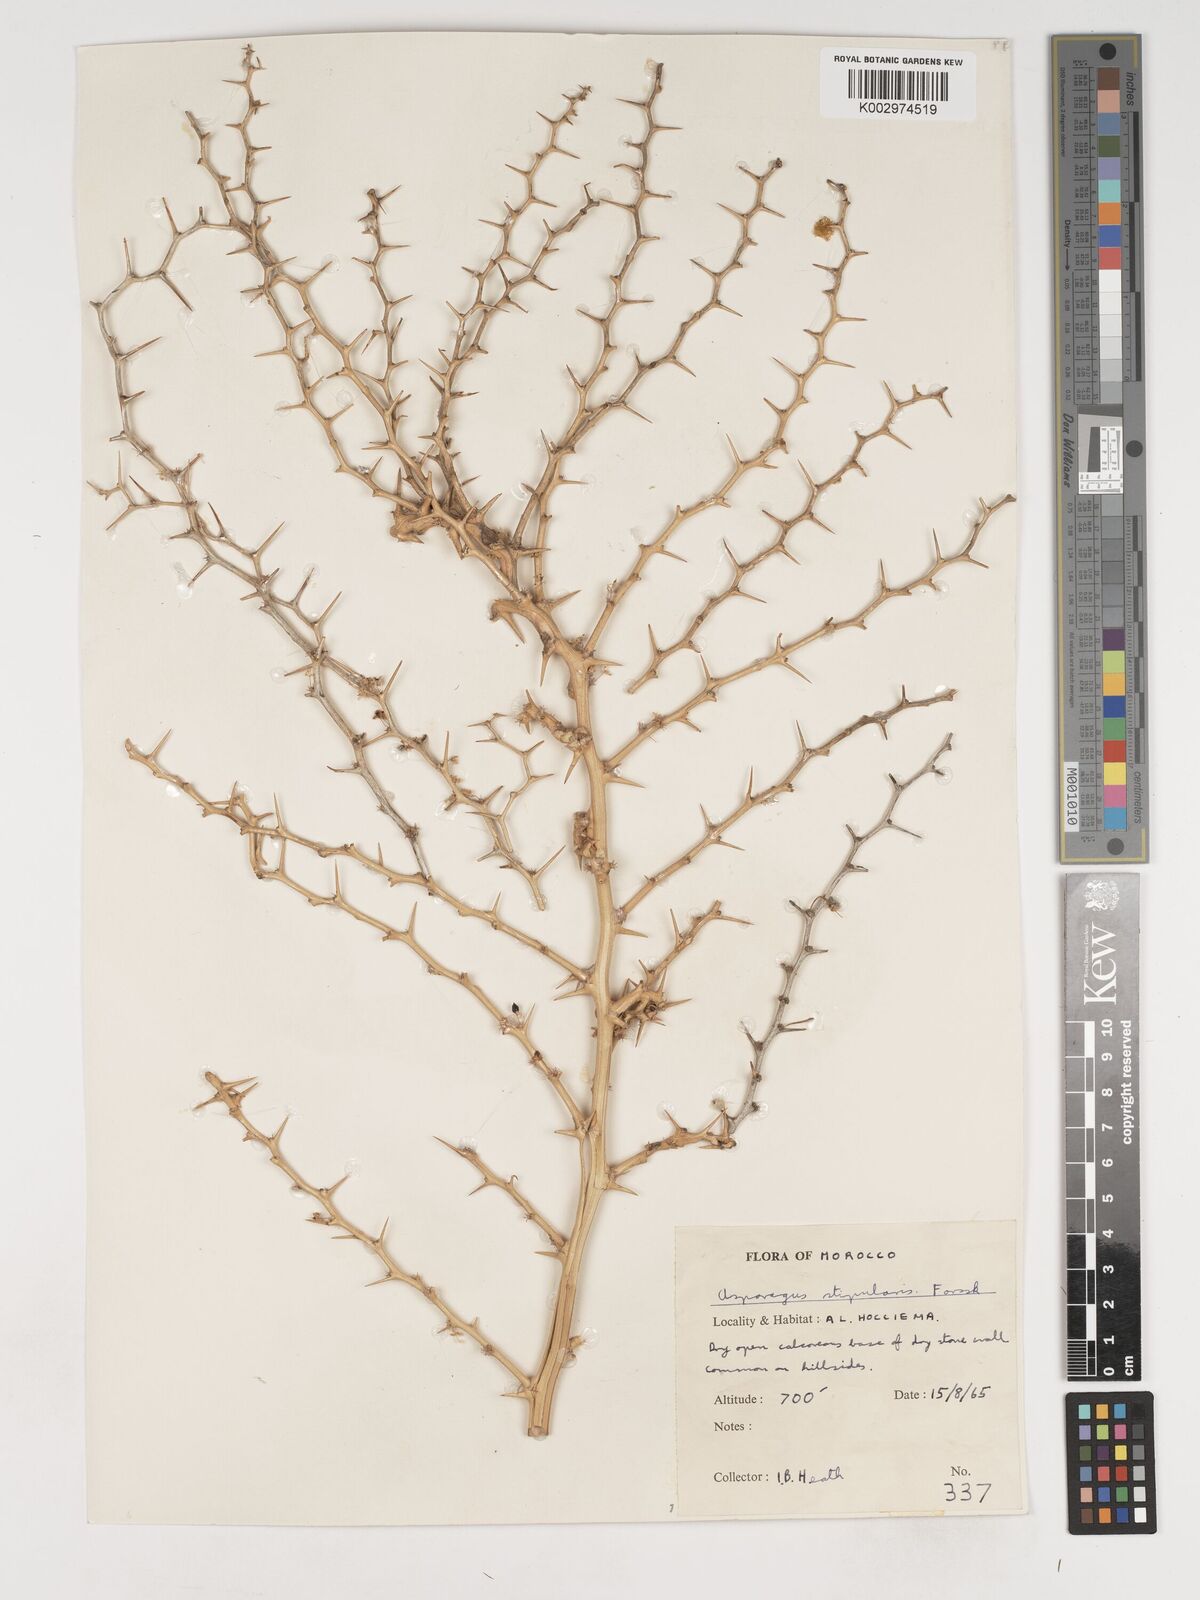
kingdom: Plantae
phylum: Tracheophyta
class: Liliopsida
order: Asparagales
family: Asparagaceae
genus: Asparagus
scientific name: Asparagus horridus
